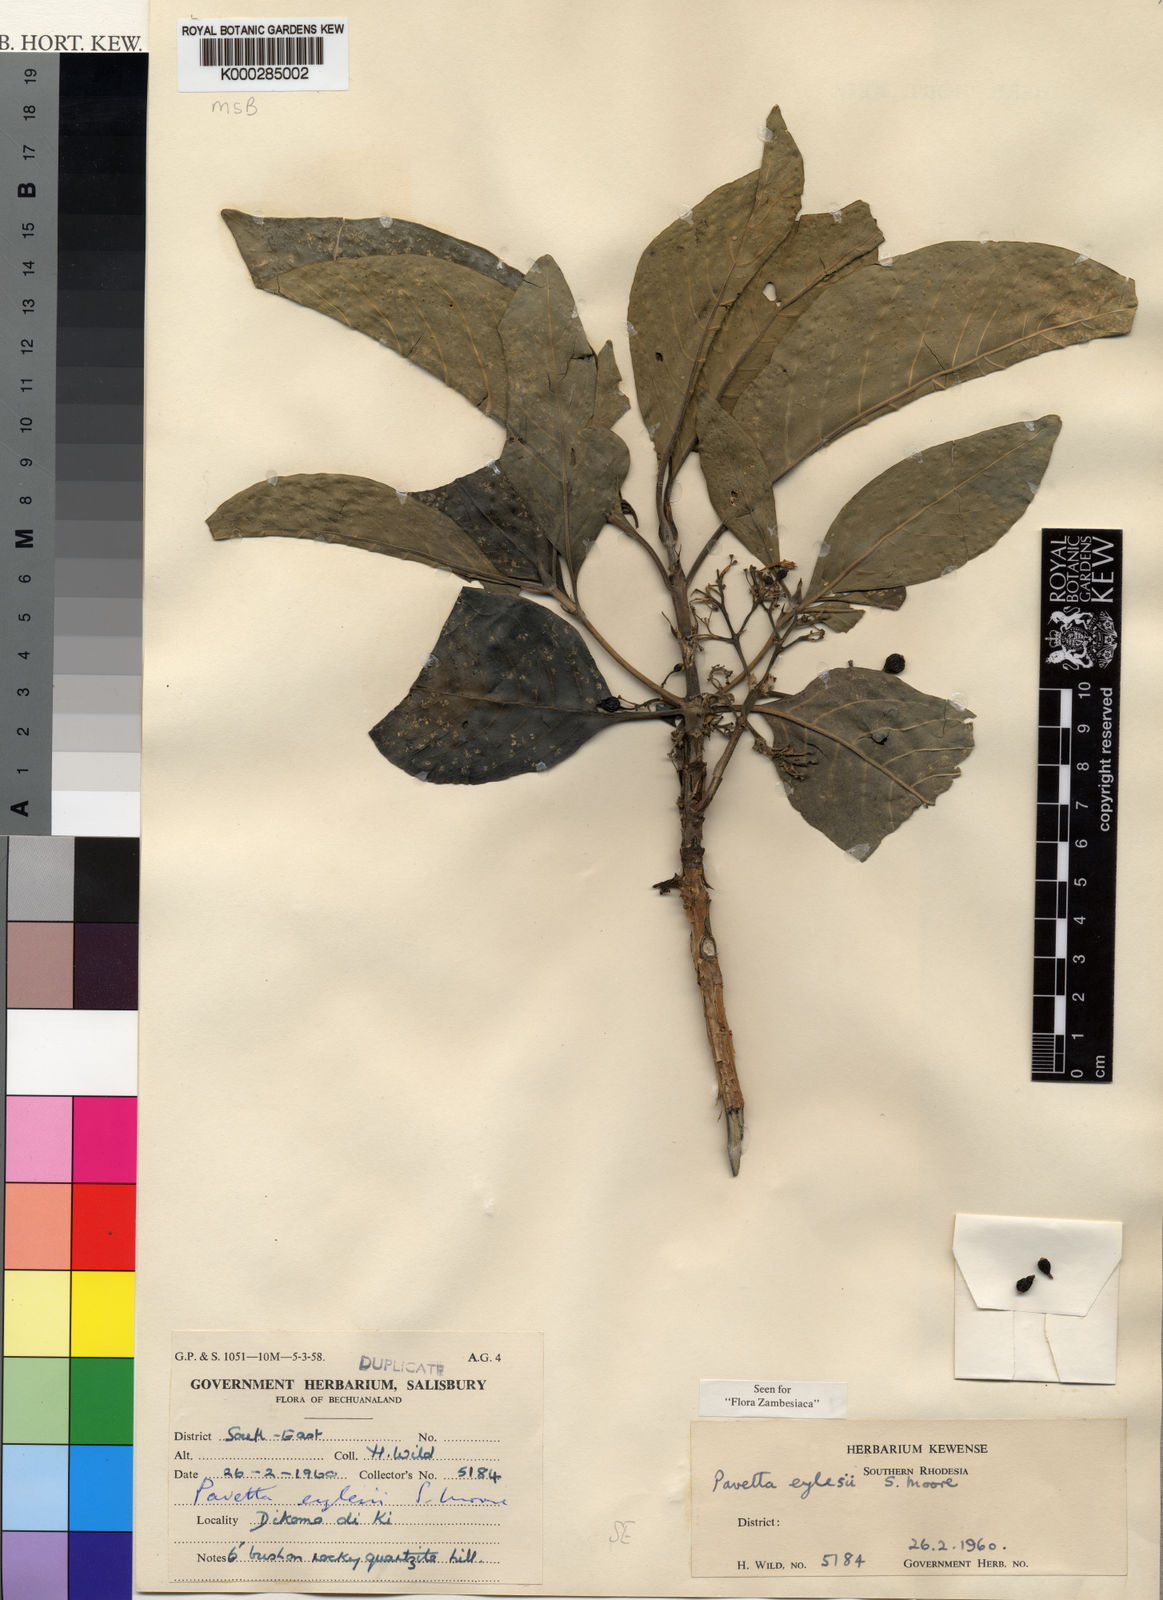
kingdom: Plantae
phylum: Tracheophyta
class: Magnoliopsida
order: Gentianales
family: Rubiaceae
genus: Pavetta
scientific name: Pavetta eylesii
